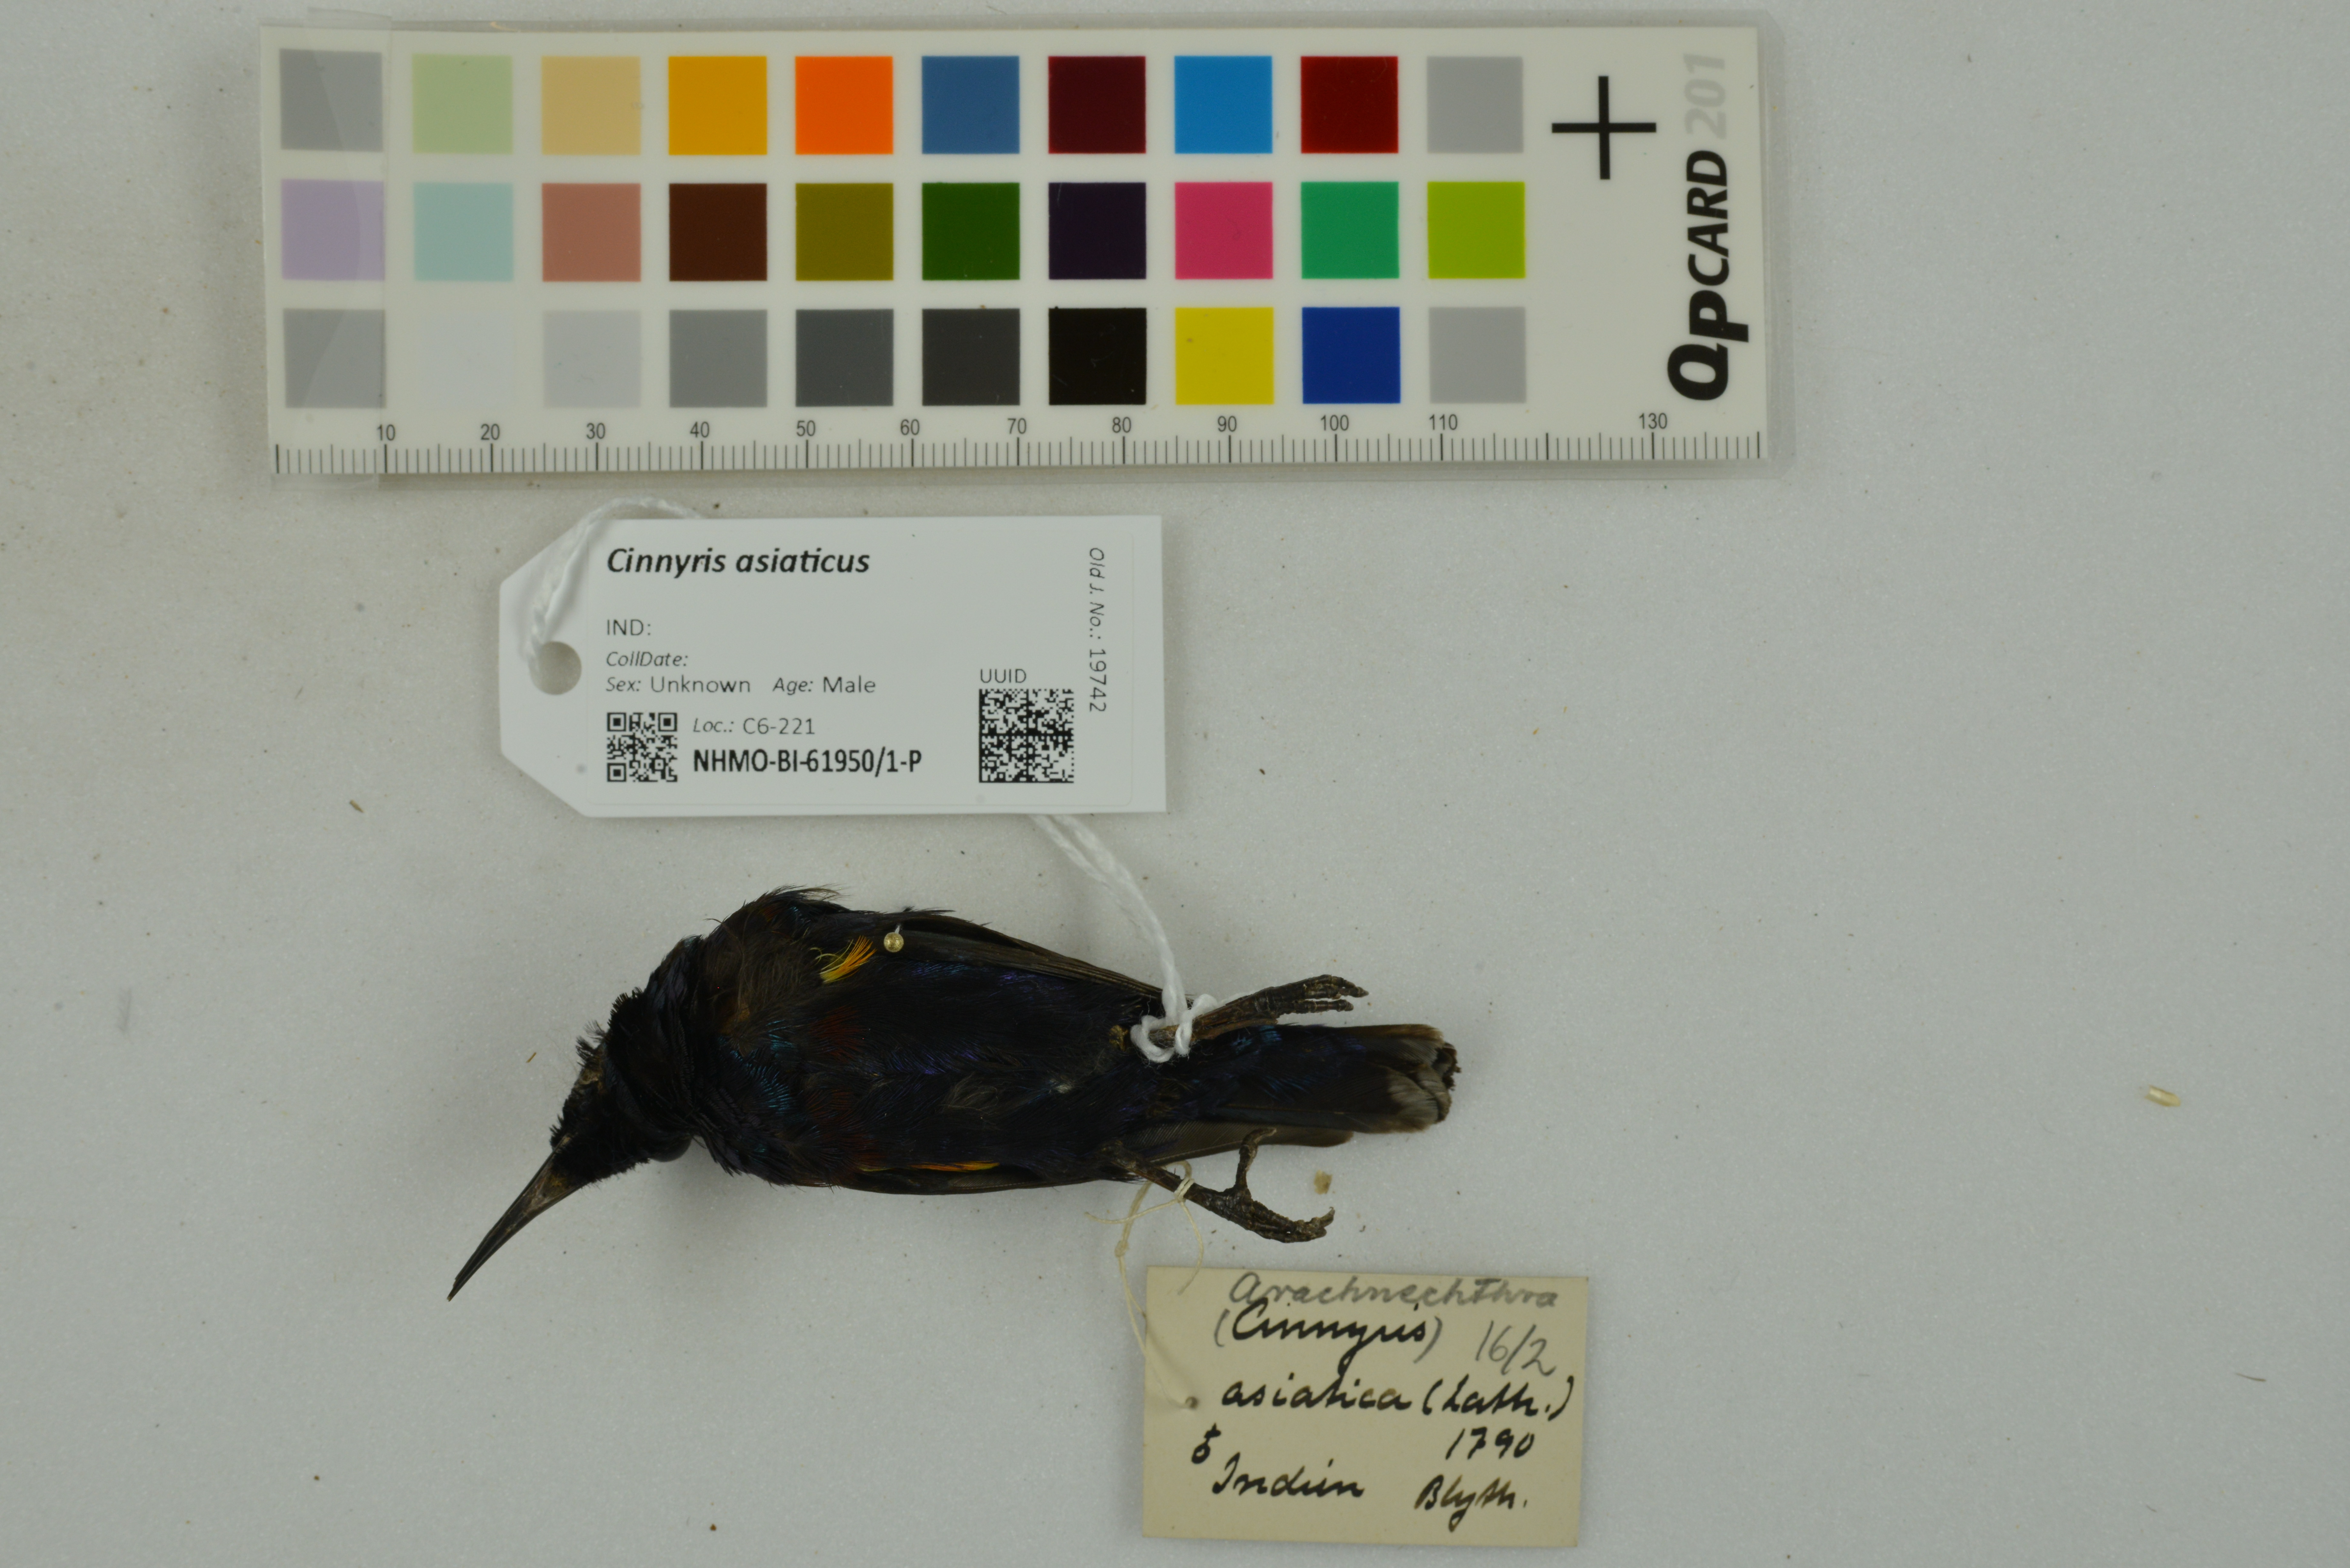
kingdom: Animalia
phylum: Chordata
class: Aves
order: Passeriformes
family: Nectariniidae
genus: Cinnyris
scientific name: Cinnyris asiaticus
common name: Purple sunbird
